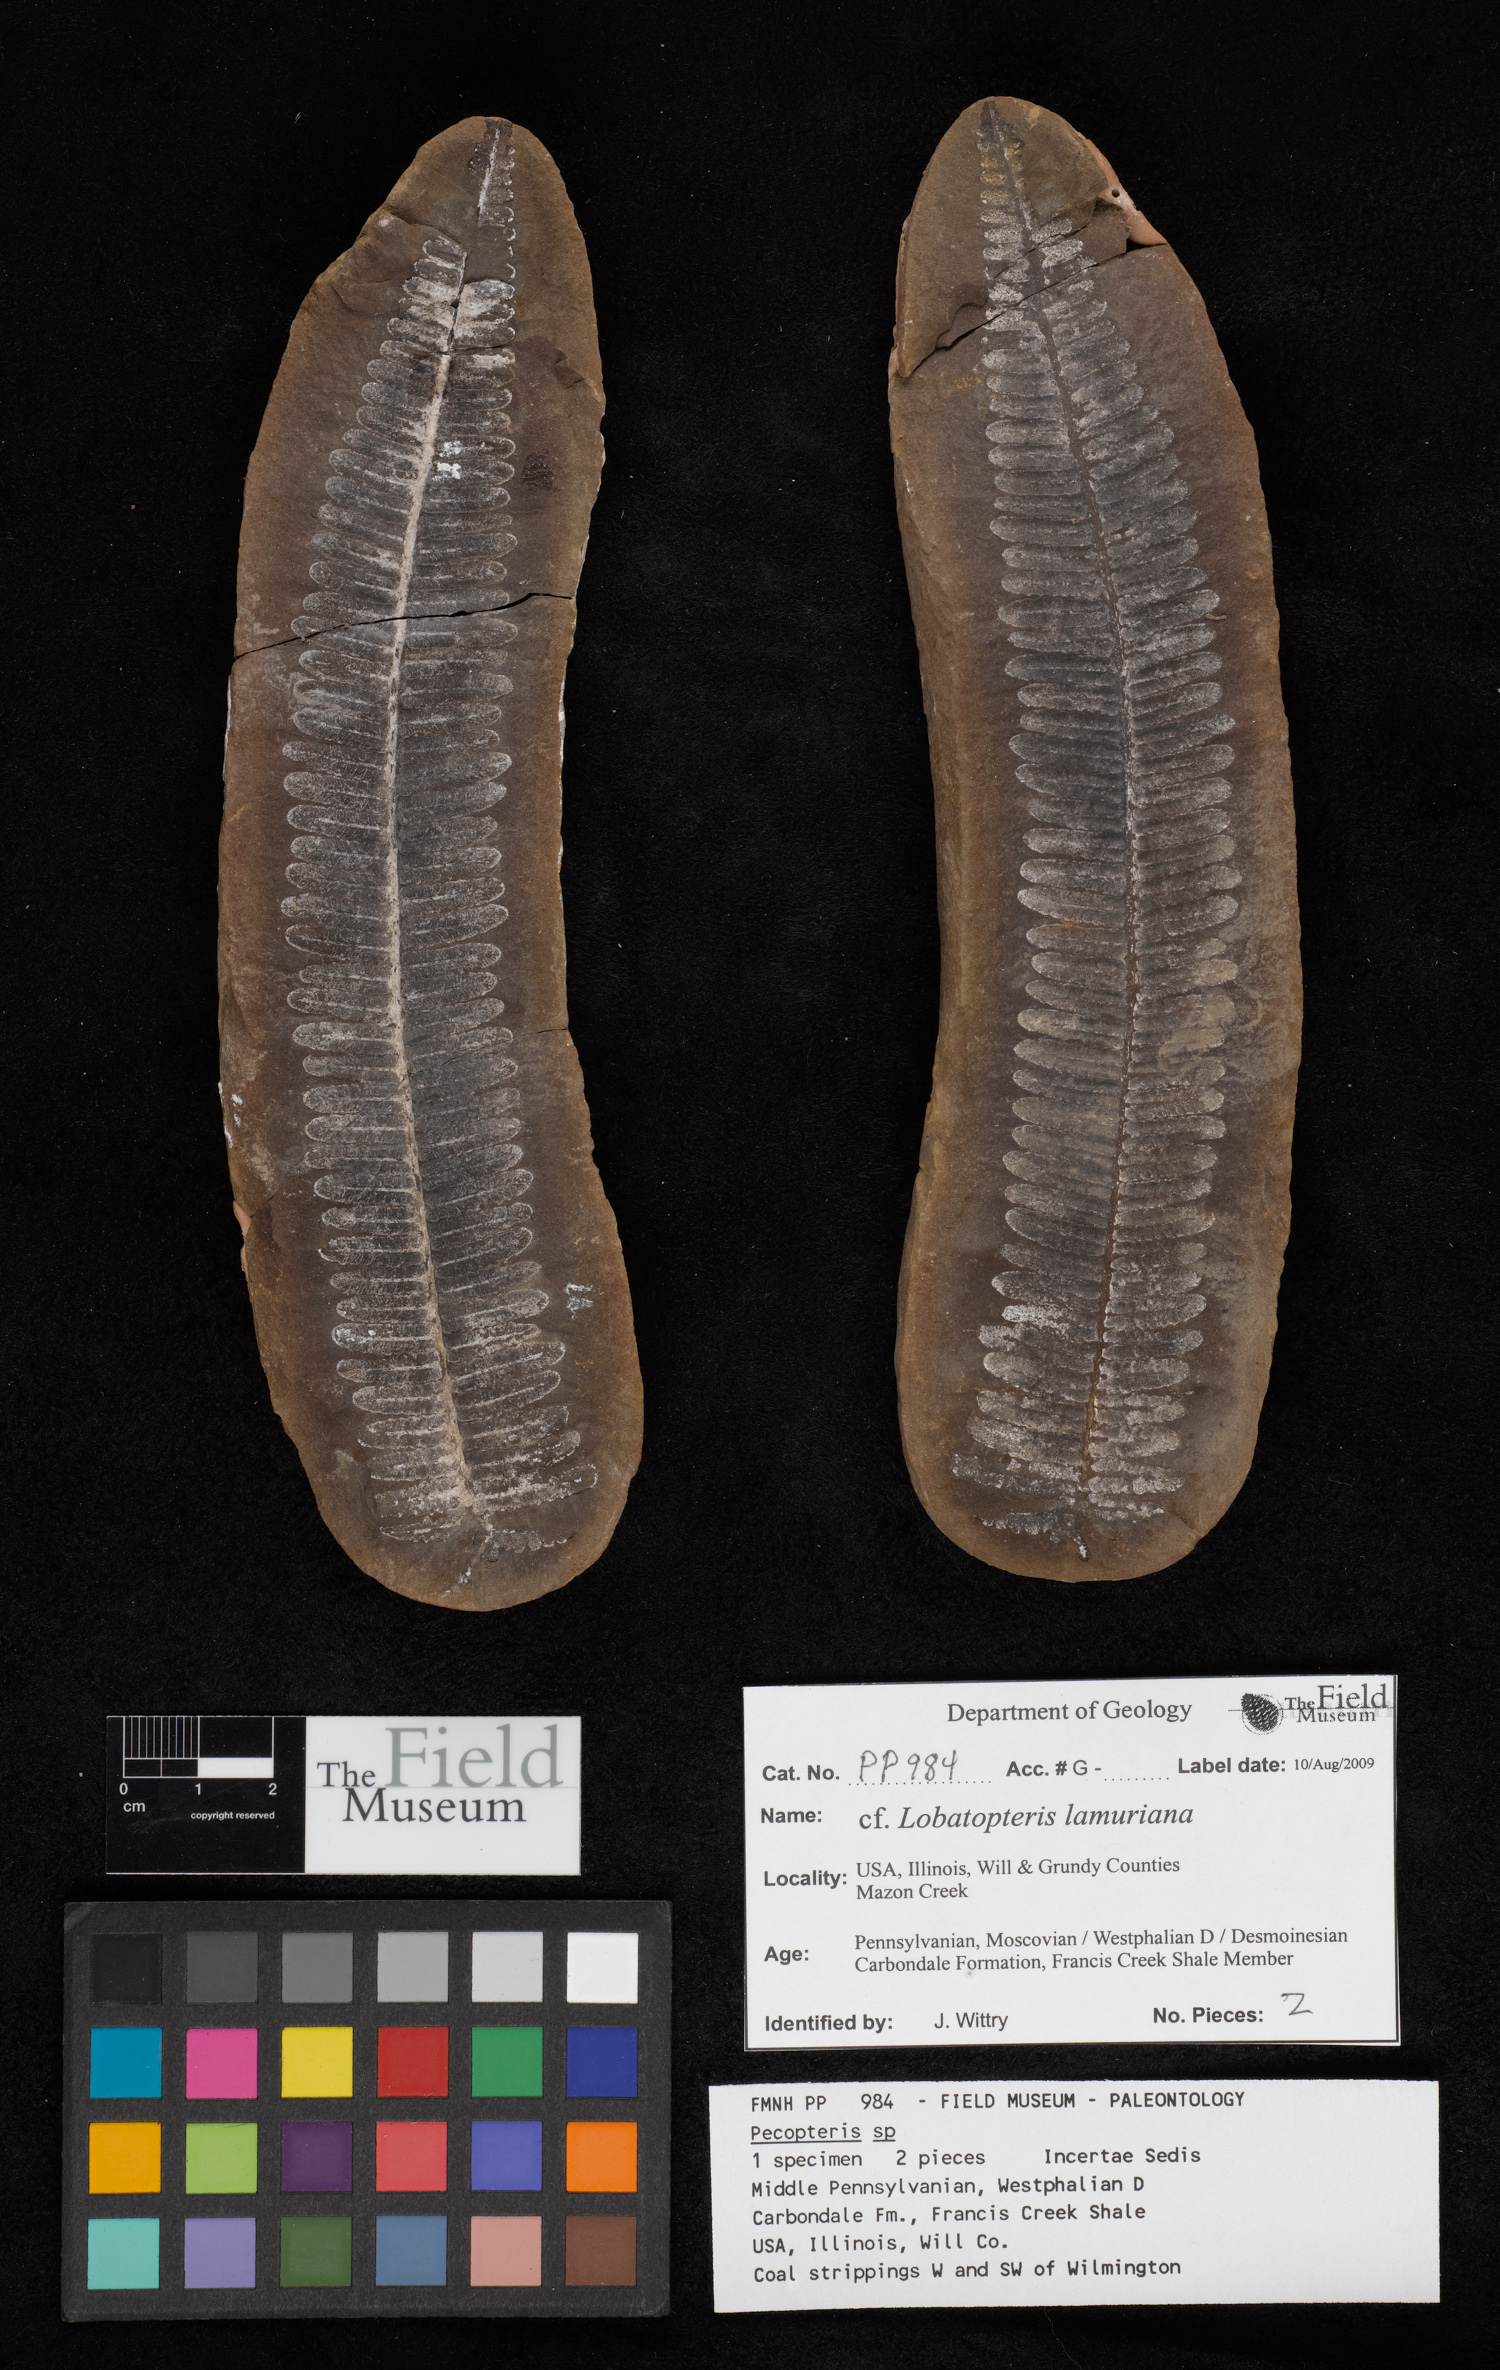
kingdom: Plantae
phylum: Tracheophyta
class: Polypodiopsida
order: Marattiales
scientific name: Marattiales
